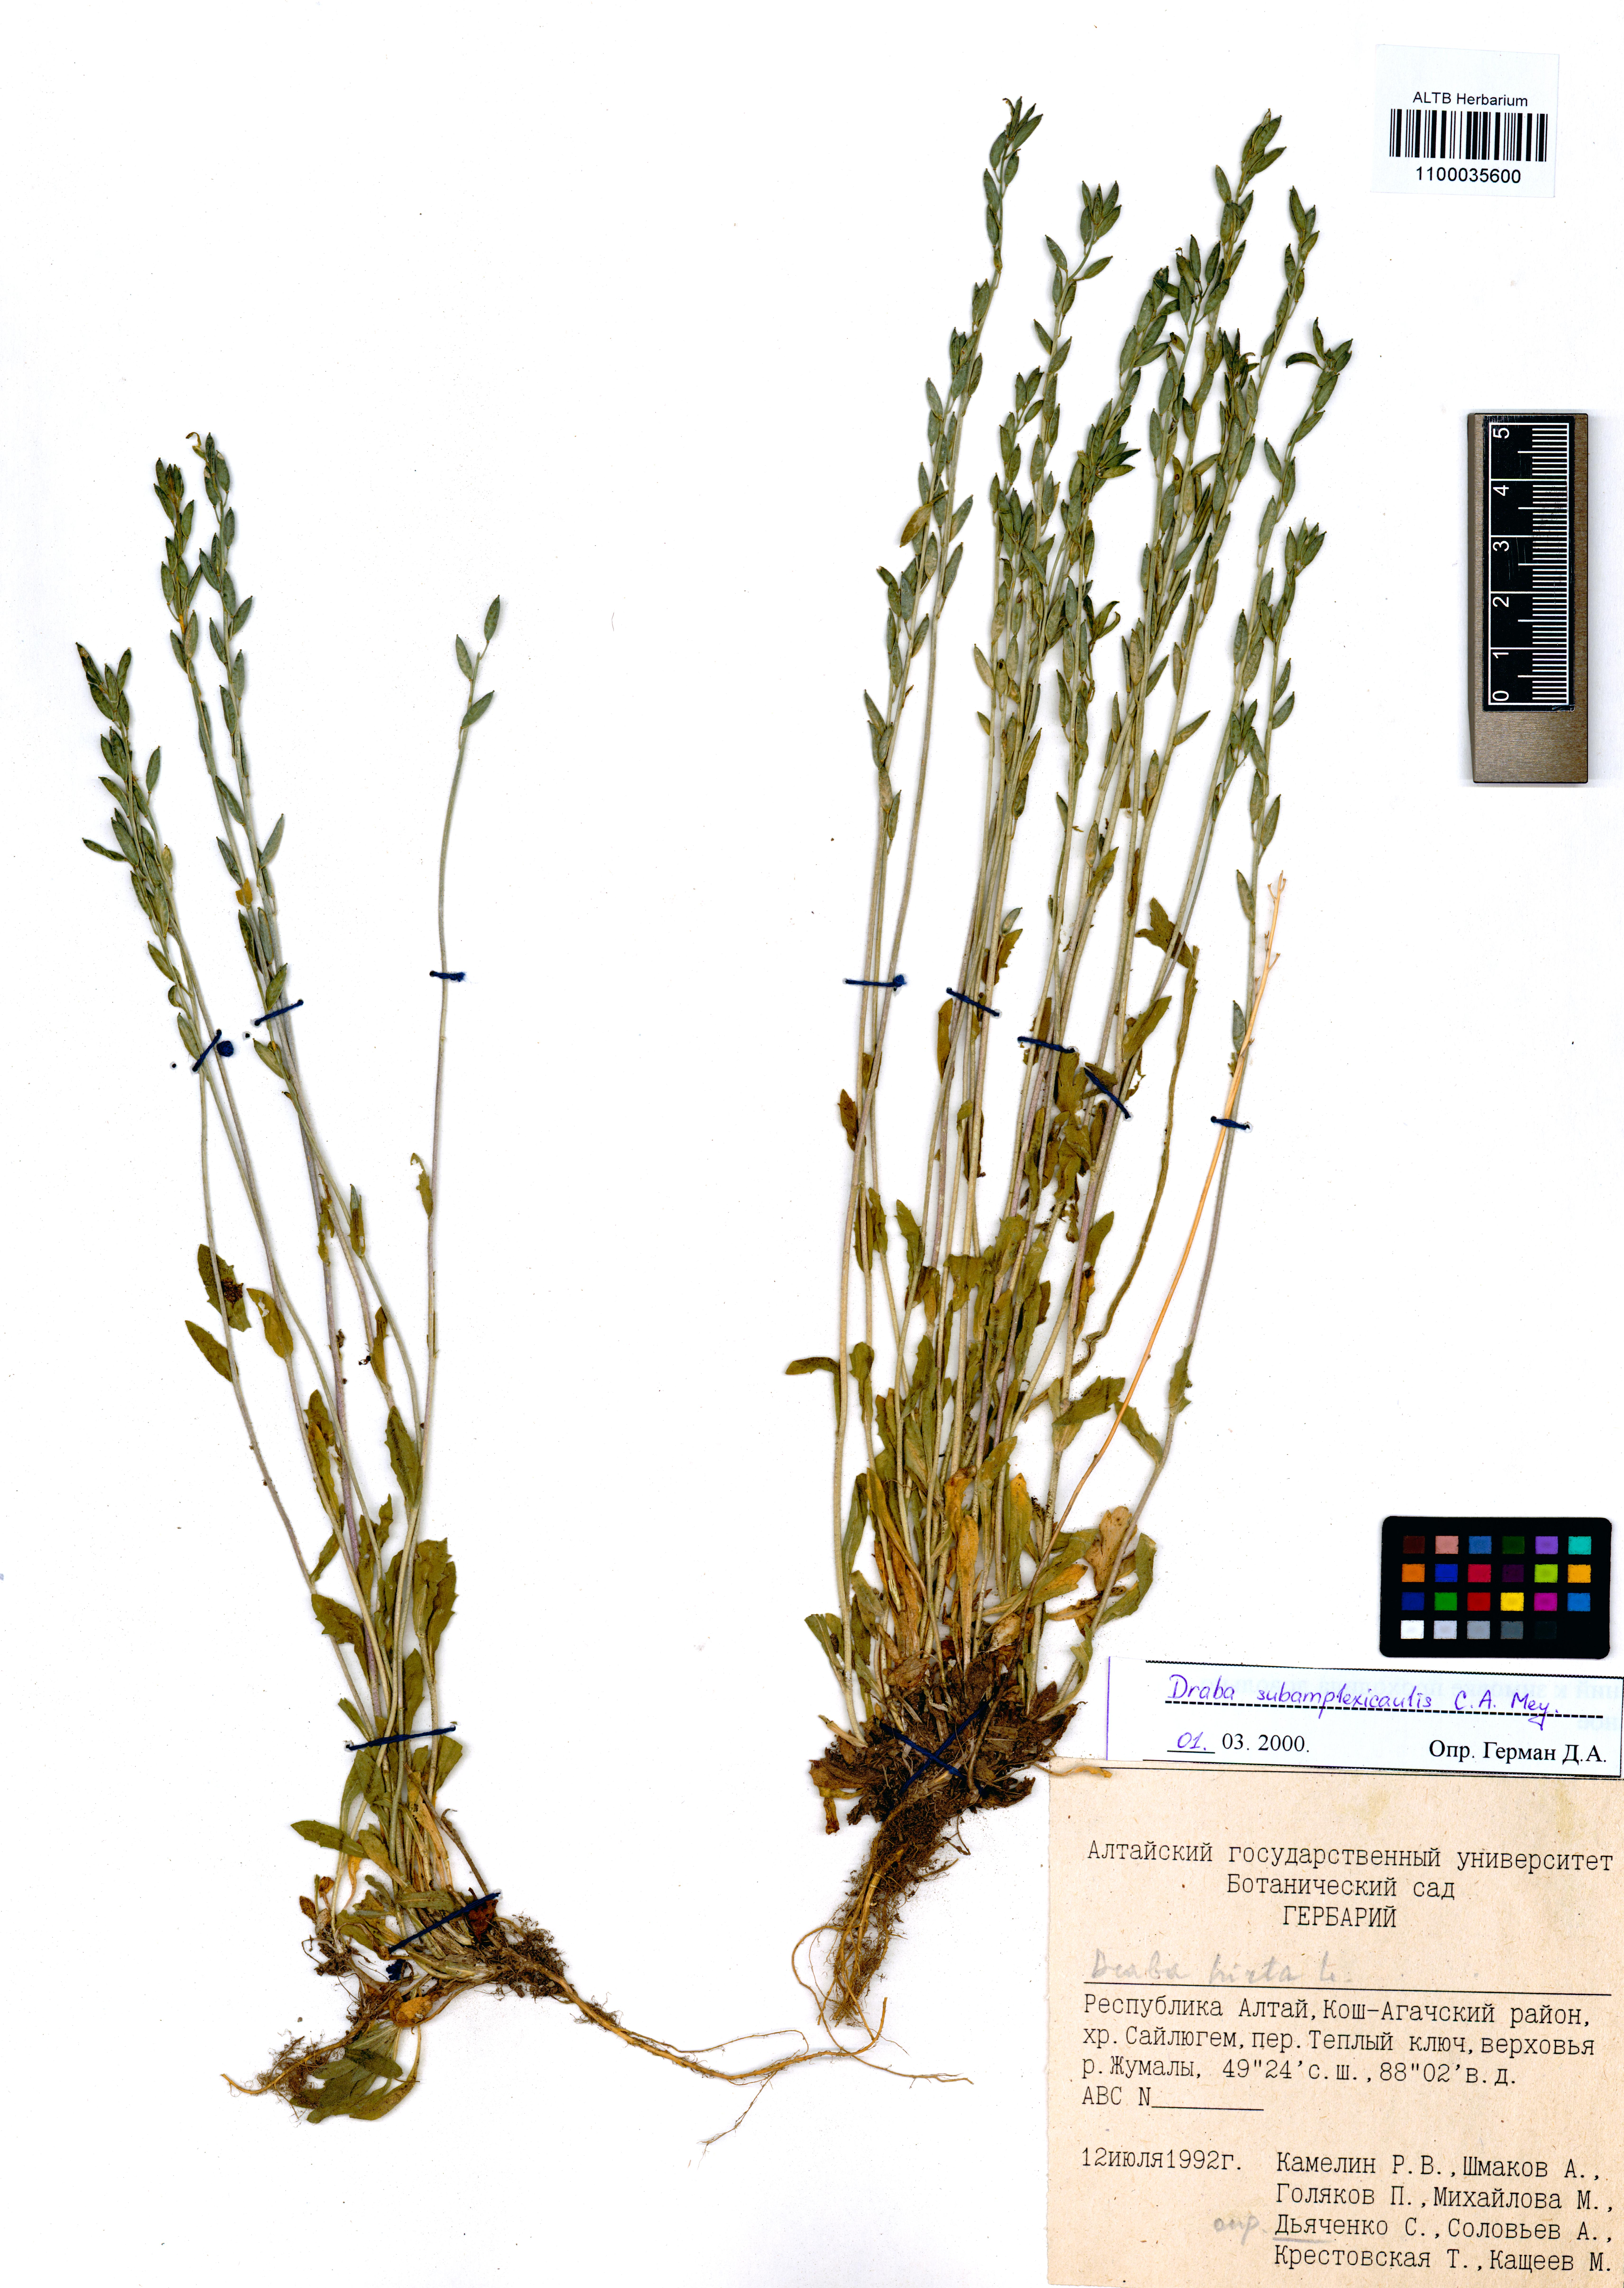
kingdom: Plantae
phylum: Tracheophyta
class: Magnoliopsida
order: Brassicales
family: Brassicaceae
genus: Draba
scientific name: Draba subamplexicaulis
